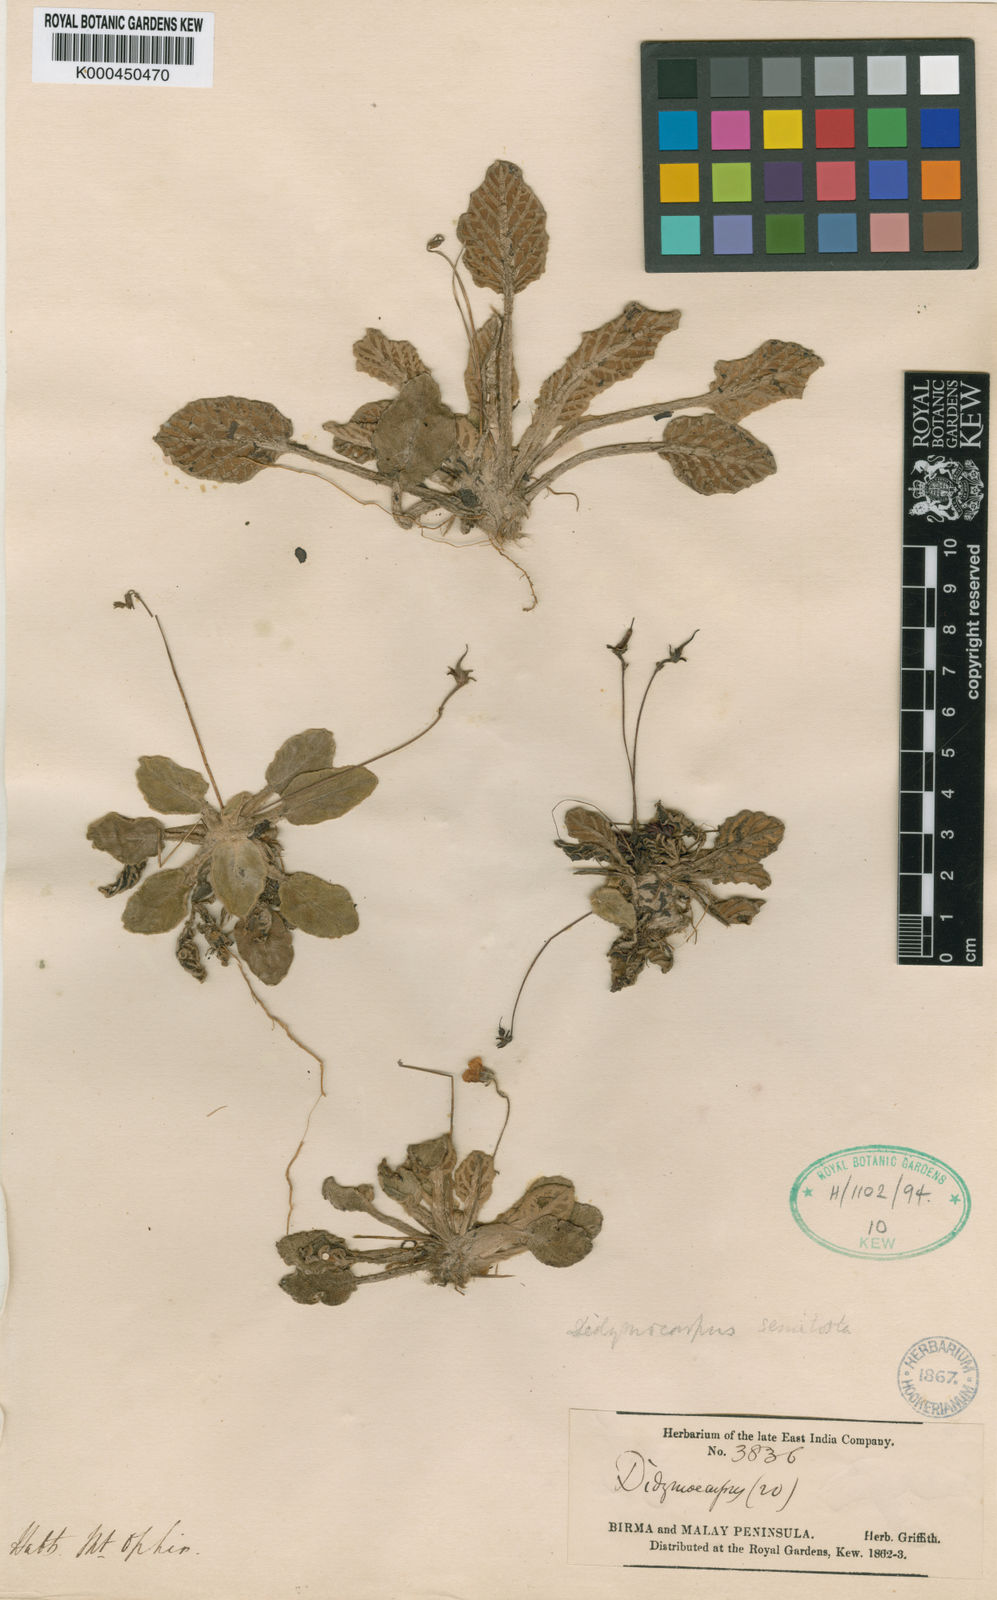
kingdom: Plantae
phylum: Tracheophyta
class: Magnoliopsida
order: Lamiales
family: Gesneriaceae
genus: Loxocarpus
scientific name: Loxocarpus semitortus
